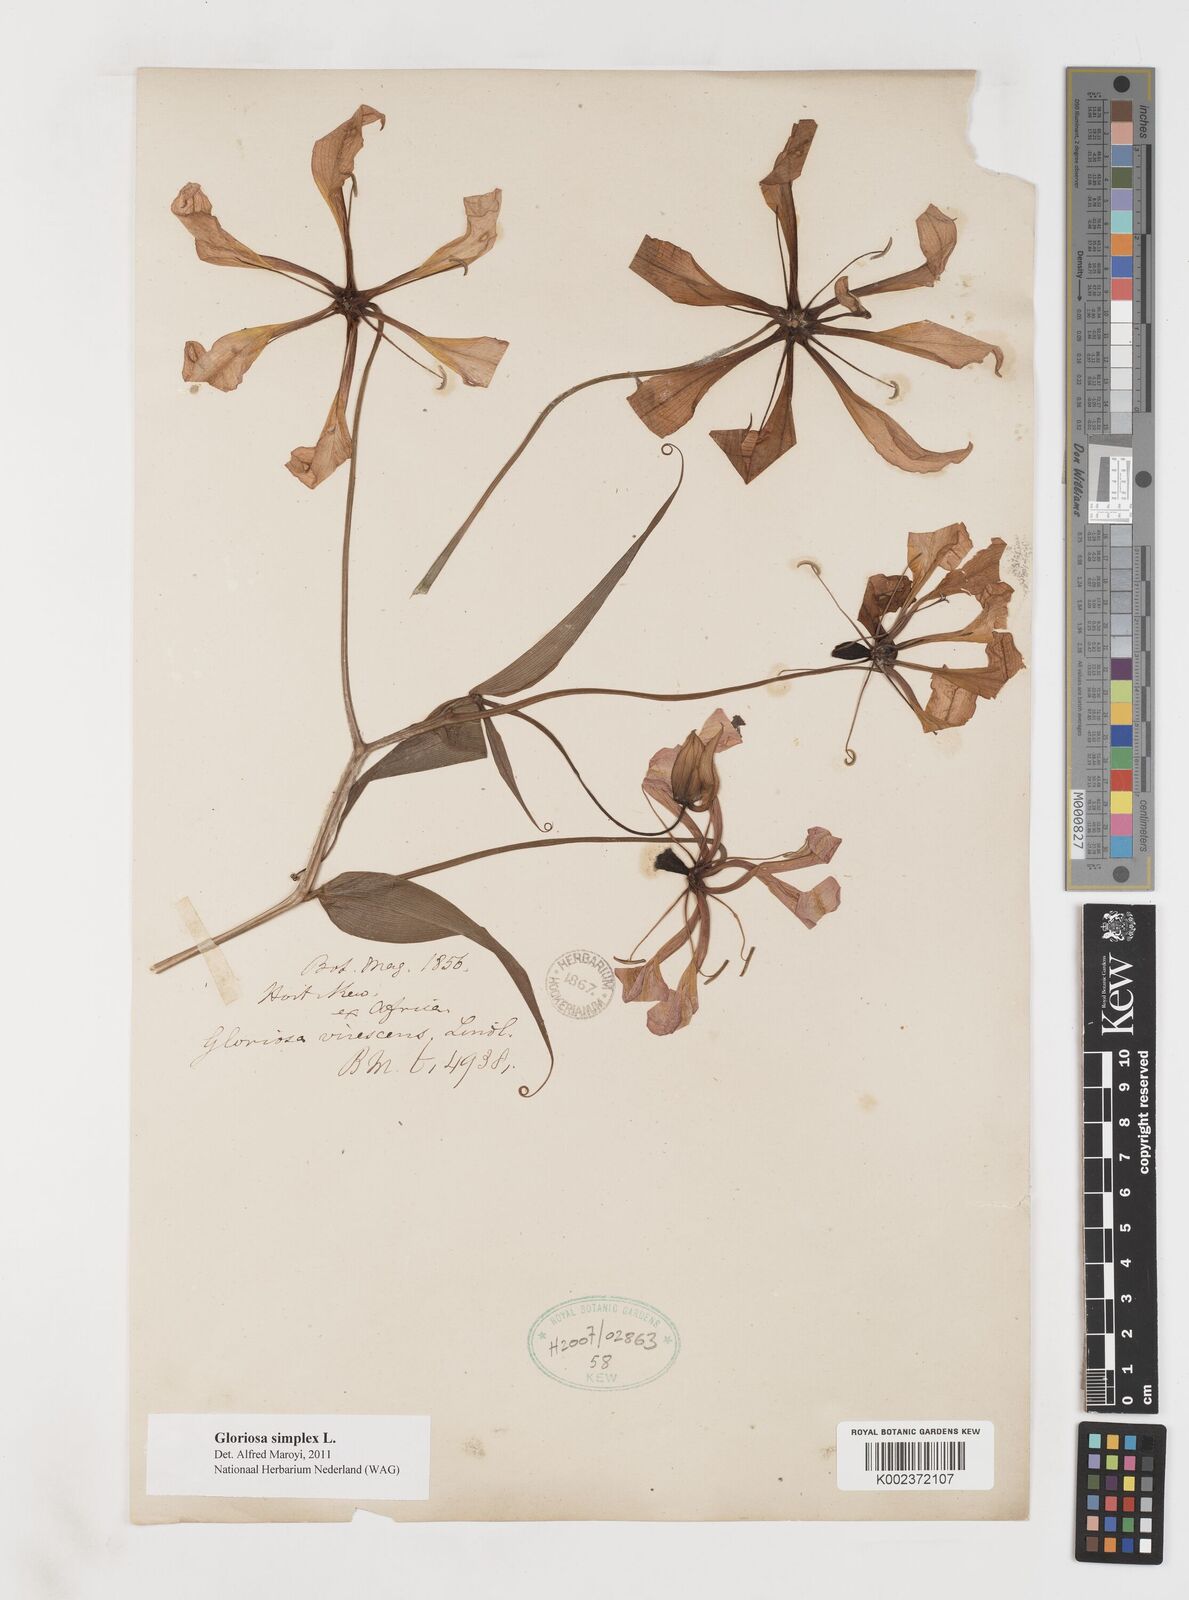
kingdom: Plantae
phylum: Tracheophyta
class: Liliopsida
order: Liliales
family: Colchicaceae
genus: Gloriosa
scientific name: Gloriosa simplex
